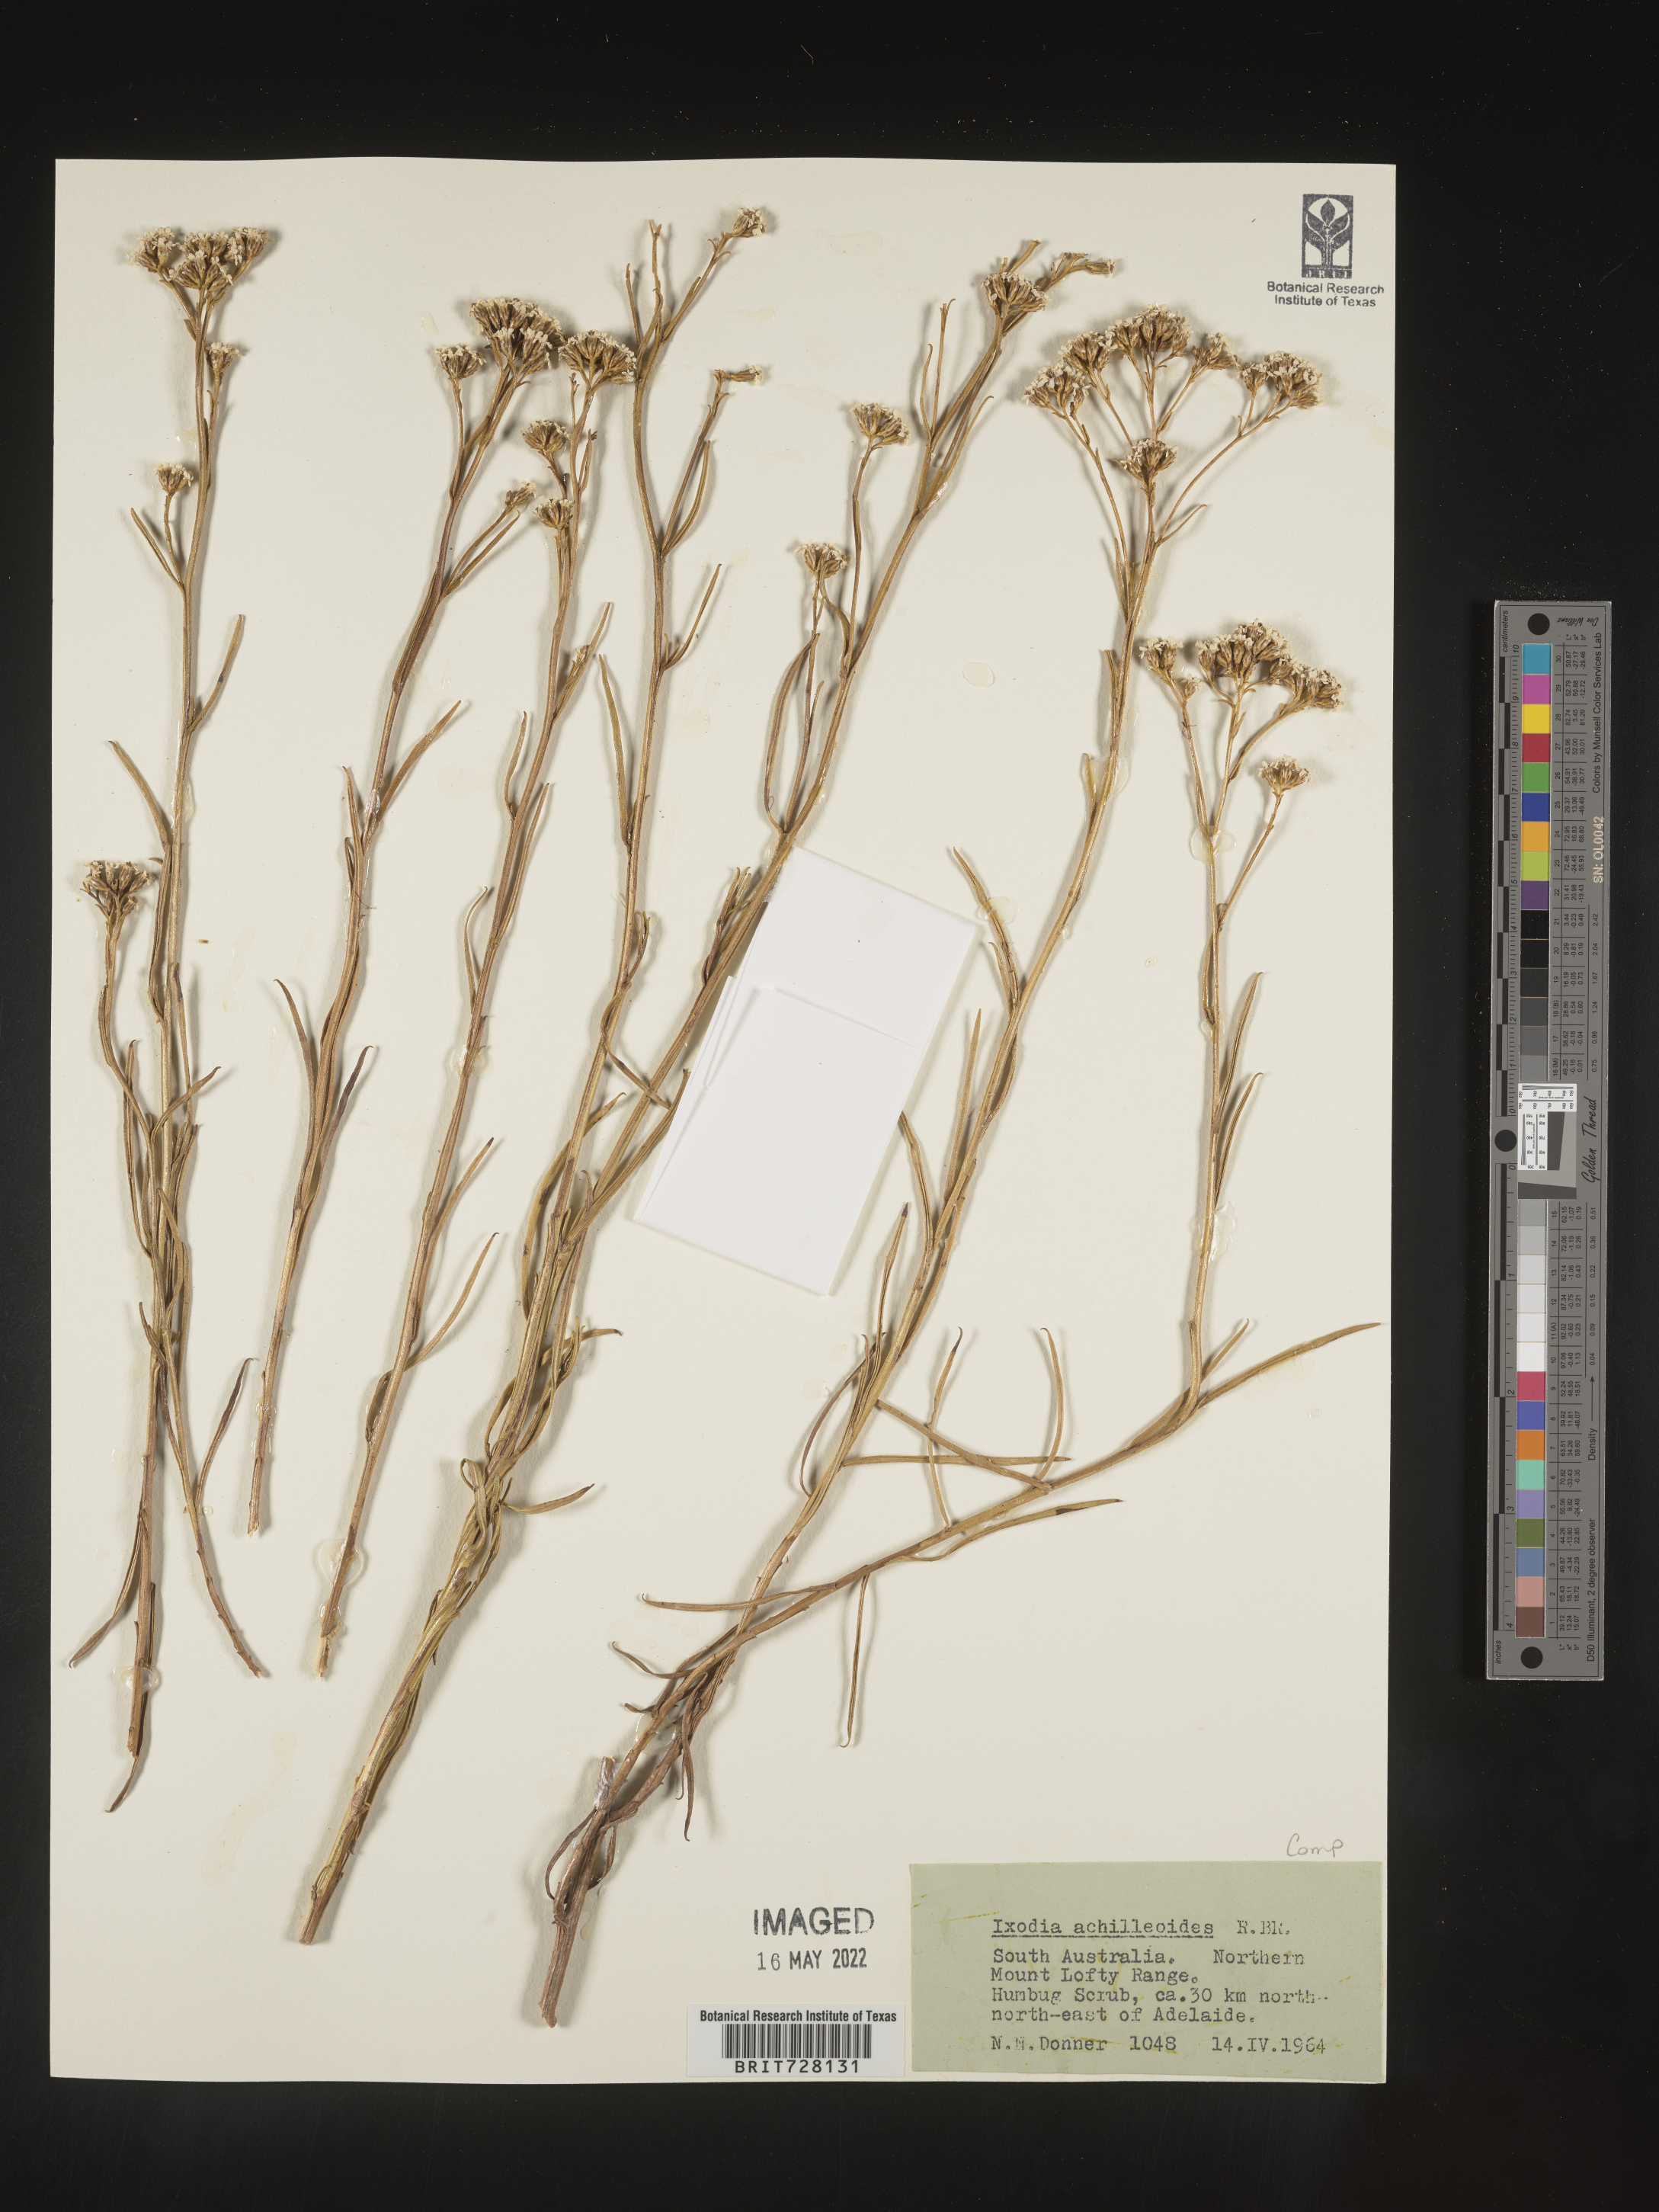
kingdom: Plantae
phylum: Tracheophyta
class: Magnoliopsida
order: Asterales
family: Asteraceae
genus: Ixodia
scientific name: Ixodia
